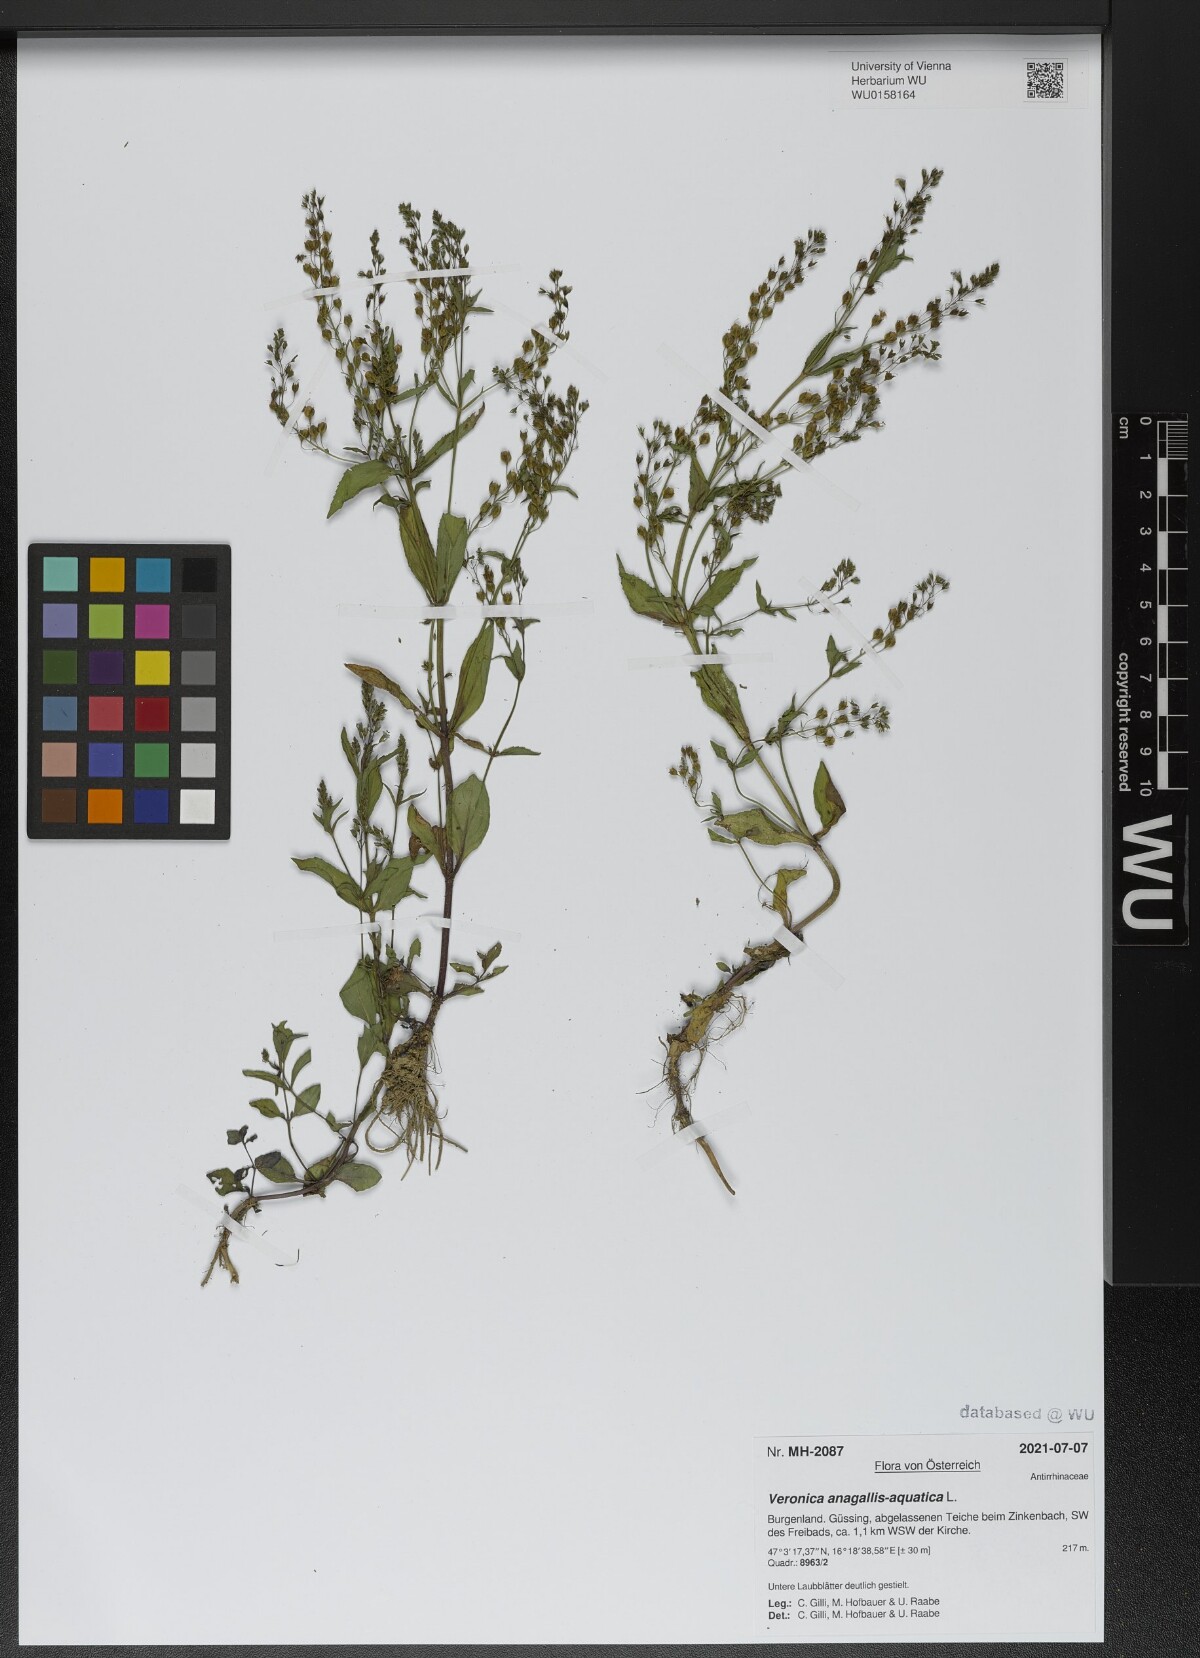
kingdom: Plantae
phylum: Tracheophyta
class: Magnoliopsida
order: Lamiales
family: Plantaginaceae
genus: Veronica
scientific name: Veronica anagallis-aquatica
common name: Water speedwell
